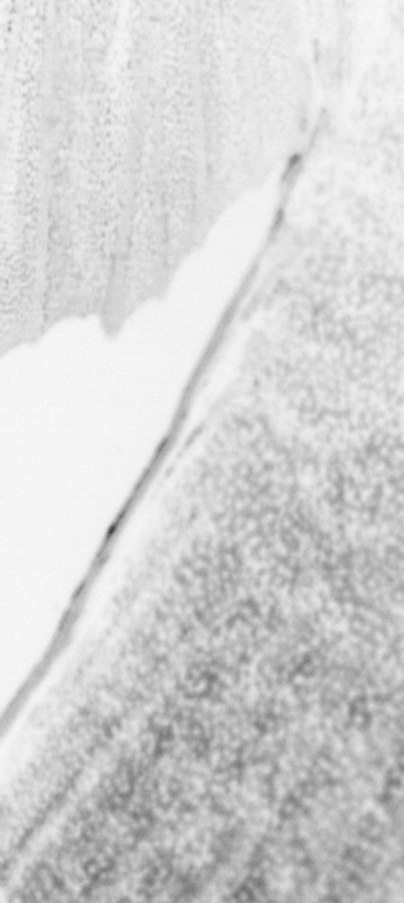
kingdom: Animalia
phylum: Chordata
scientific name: Chordata
